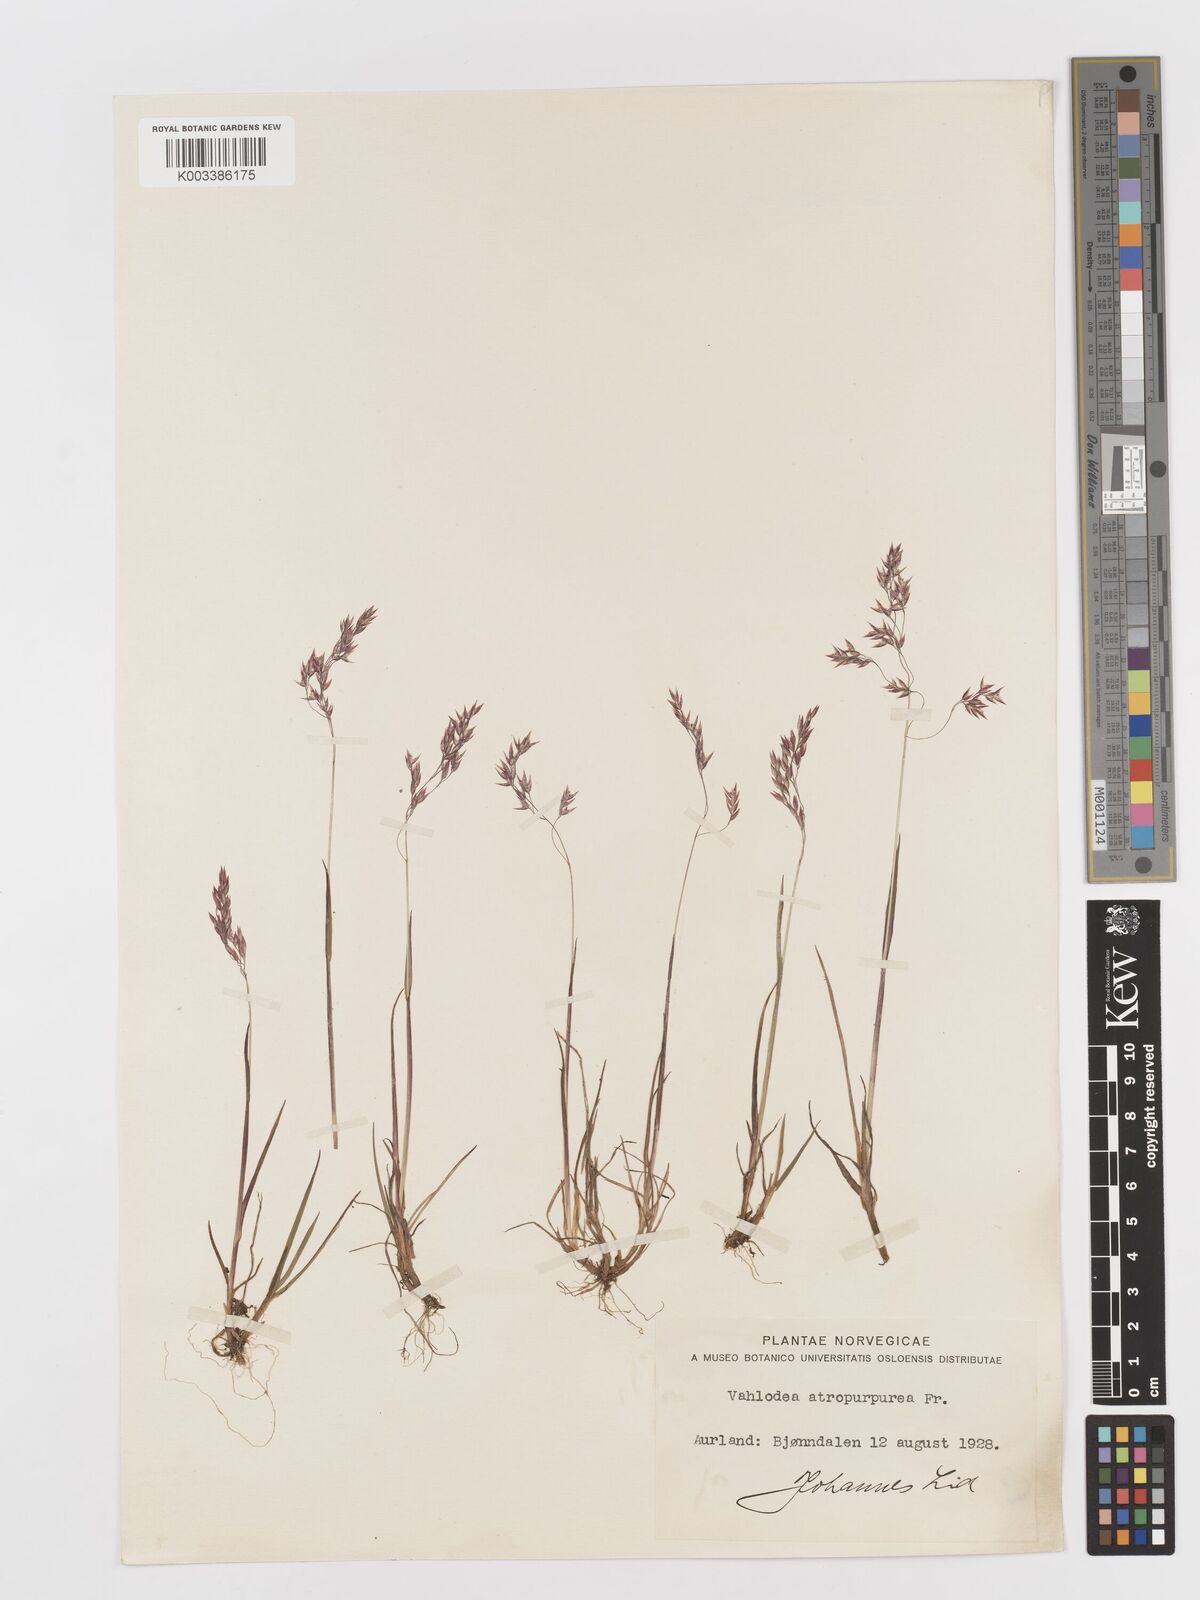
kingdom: Plantae
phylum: Tracheophyta
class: Liliopsida
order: Poales
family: Poaceae
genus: Vahlodea
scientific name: Vahlodea atropurpurea
